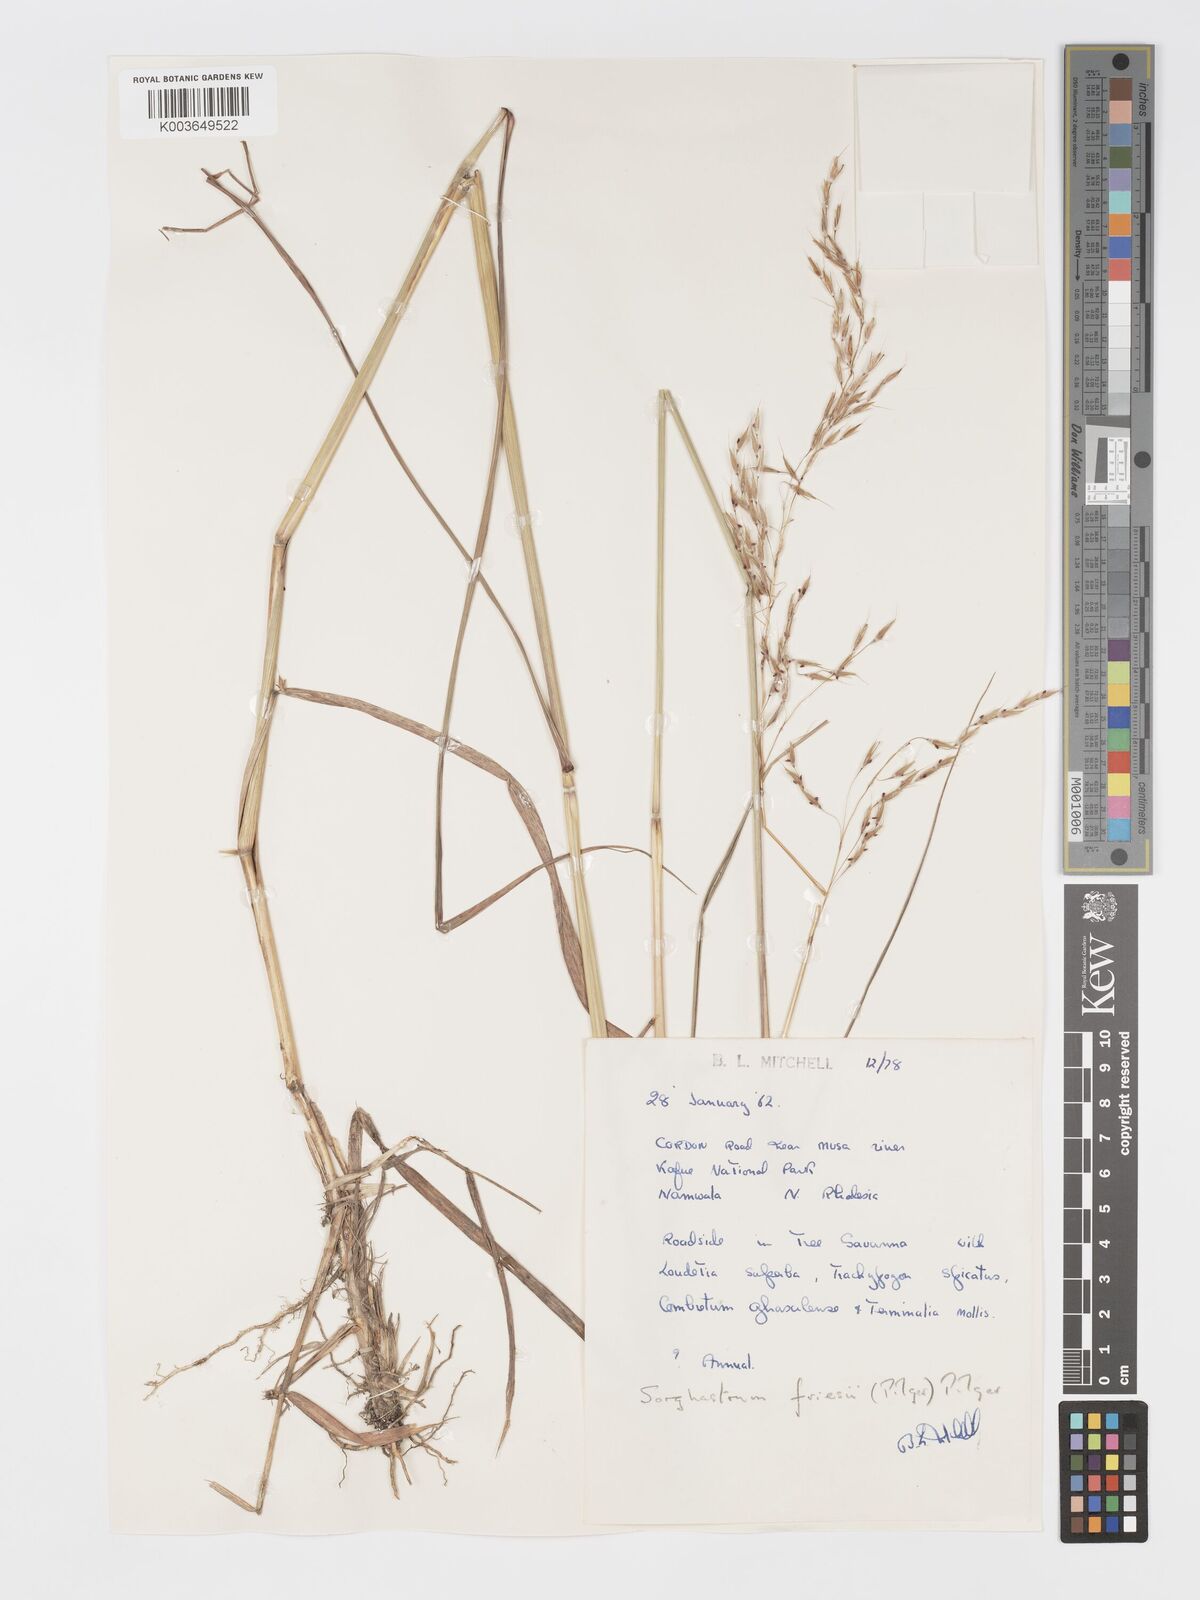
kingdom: Plantae
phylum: Tracheophyta
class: Liliopsida
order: Poales
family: Poaceae
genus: Sorghastrum
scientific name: Sorghastrum nudipes
